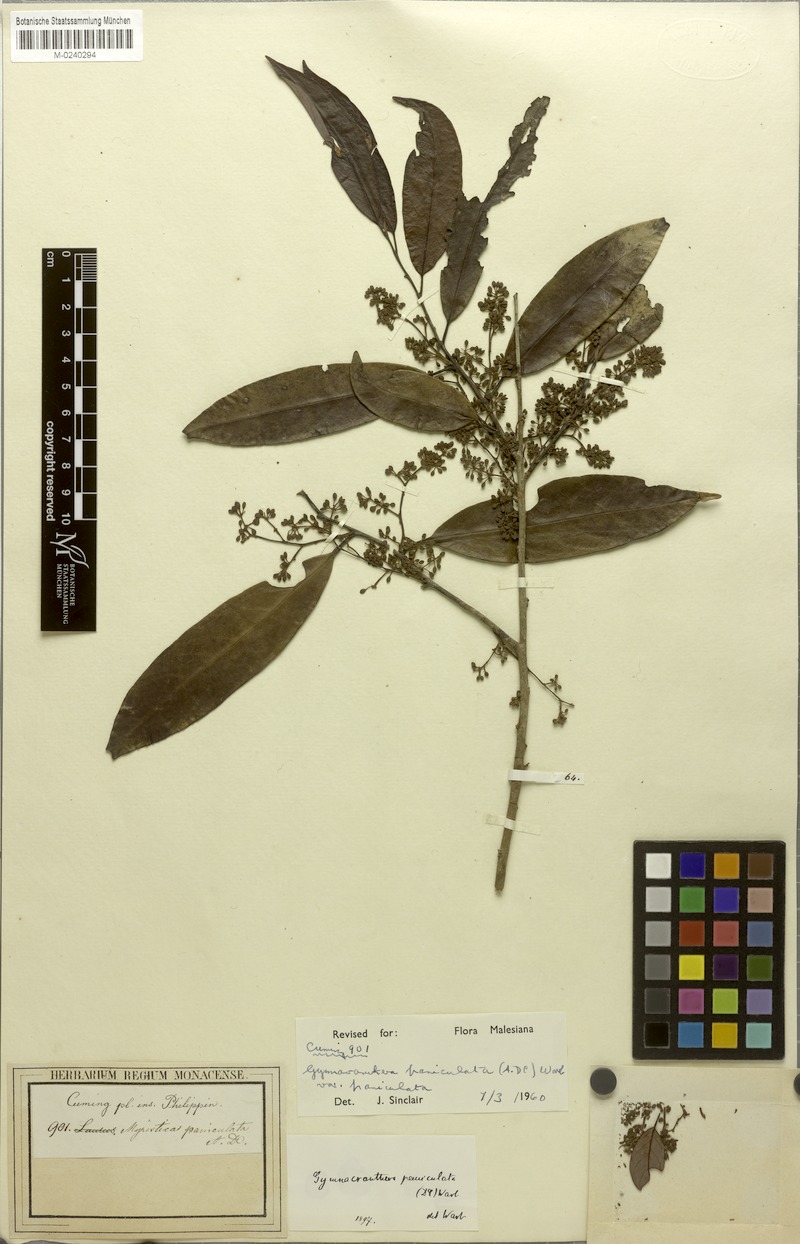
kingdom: Plantae
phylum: Tracheophyta
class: Magnoliopsida
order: Magnoliales
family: Myristicaceae
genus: Gymnacranthera
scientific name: Gymnacranthera farquhariana
